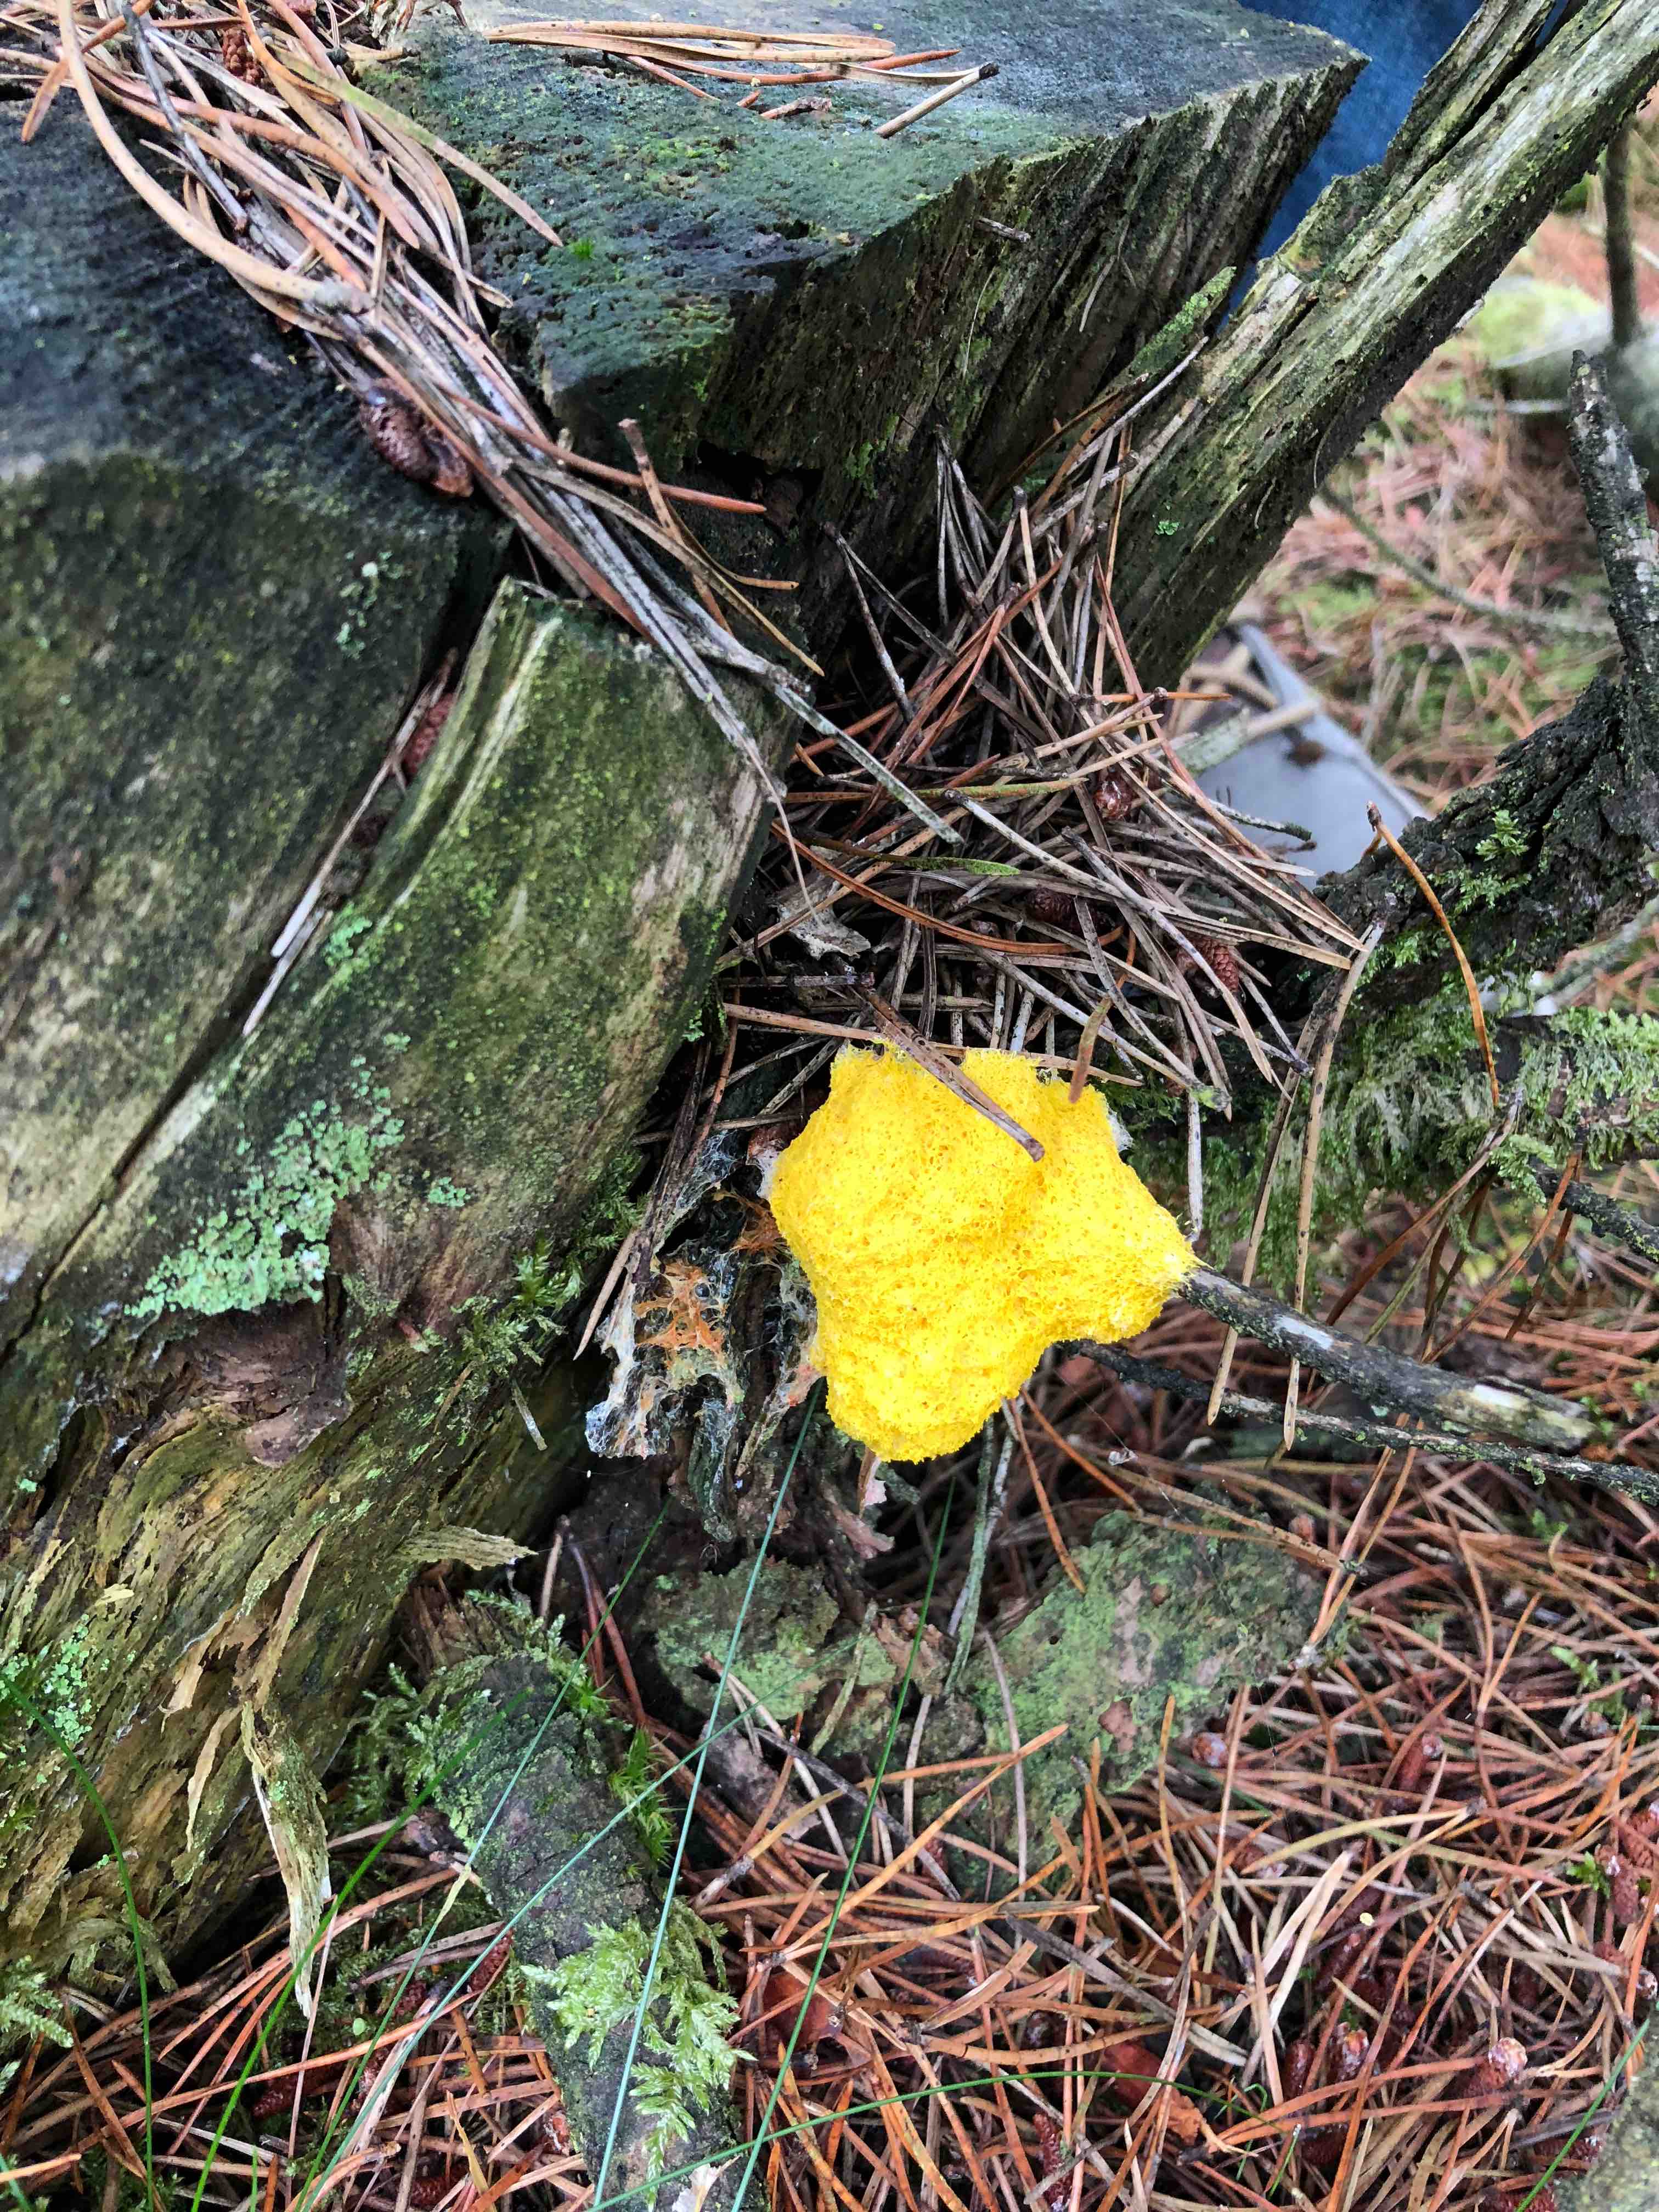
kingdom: Protozoa
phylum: Mycetozoa
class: Myxomycetes
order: Physarales
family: Physaraceae
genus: Fuligo
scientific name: Fuligo septica
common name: gul troldsmør
